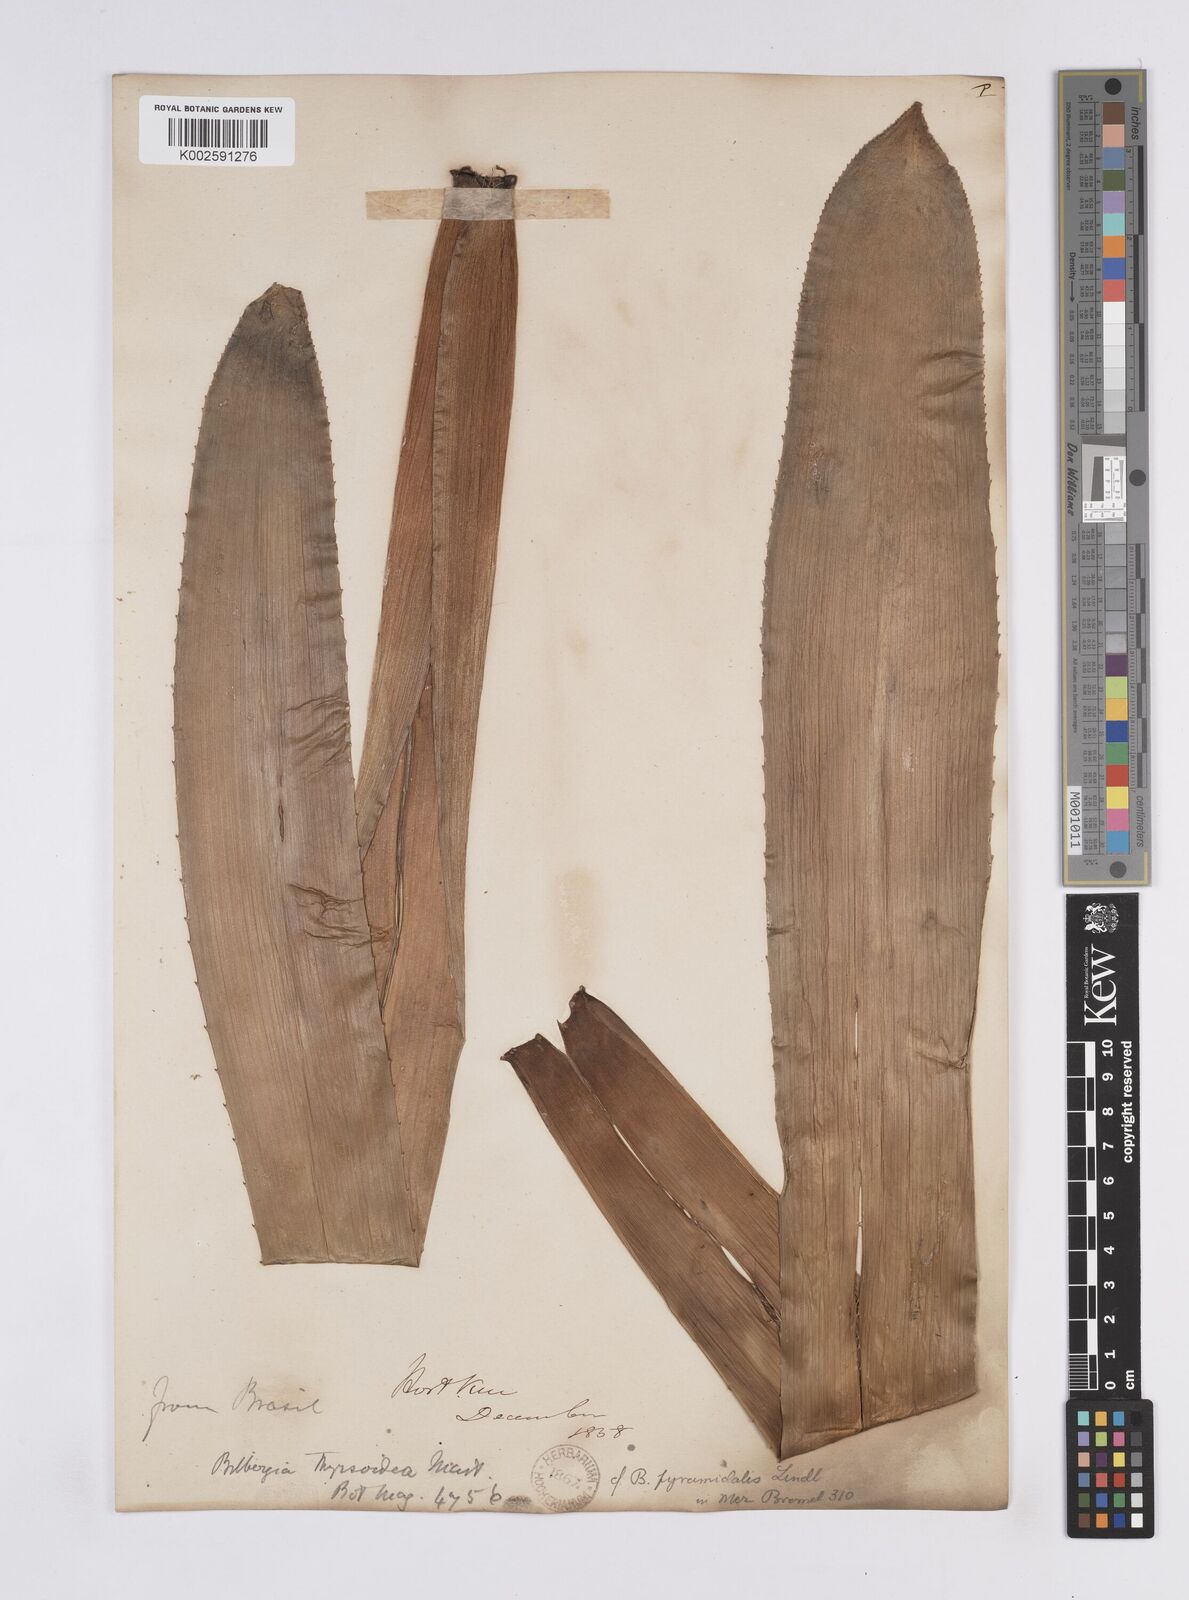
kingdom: Plantae
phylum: Tracheophyta
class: Liliopsida
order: Poales
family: Bromeliaceae
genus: Billbergia
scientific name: Billbergia pyramidalis
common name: Foolproofplant
